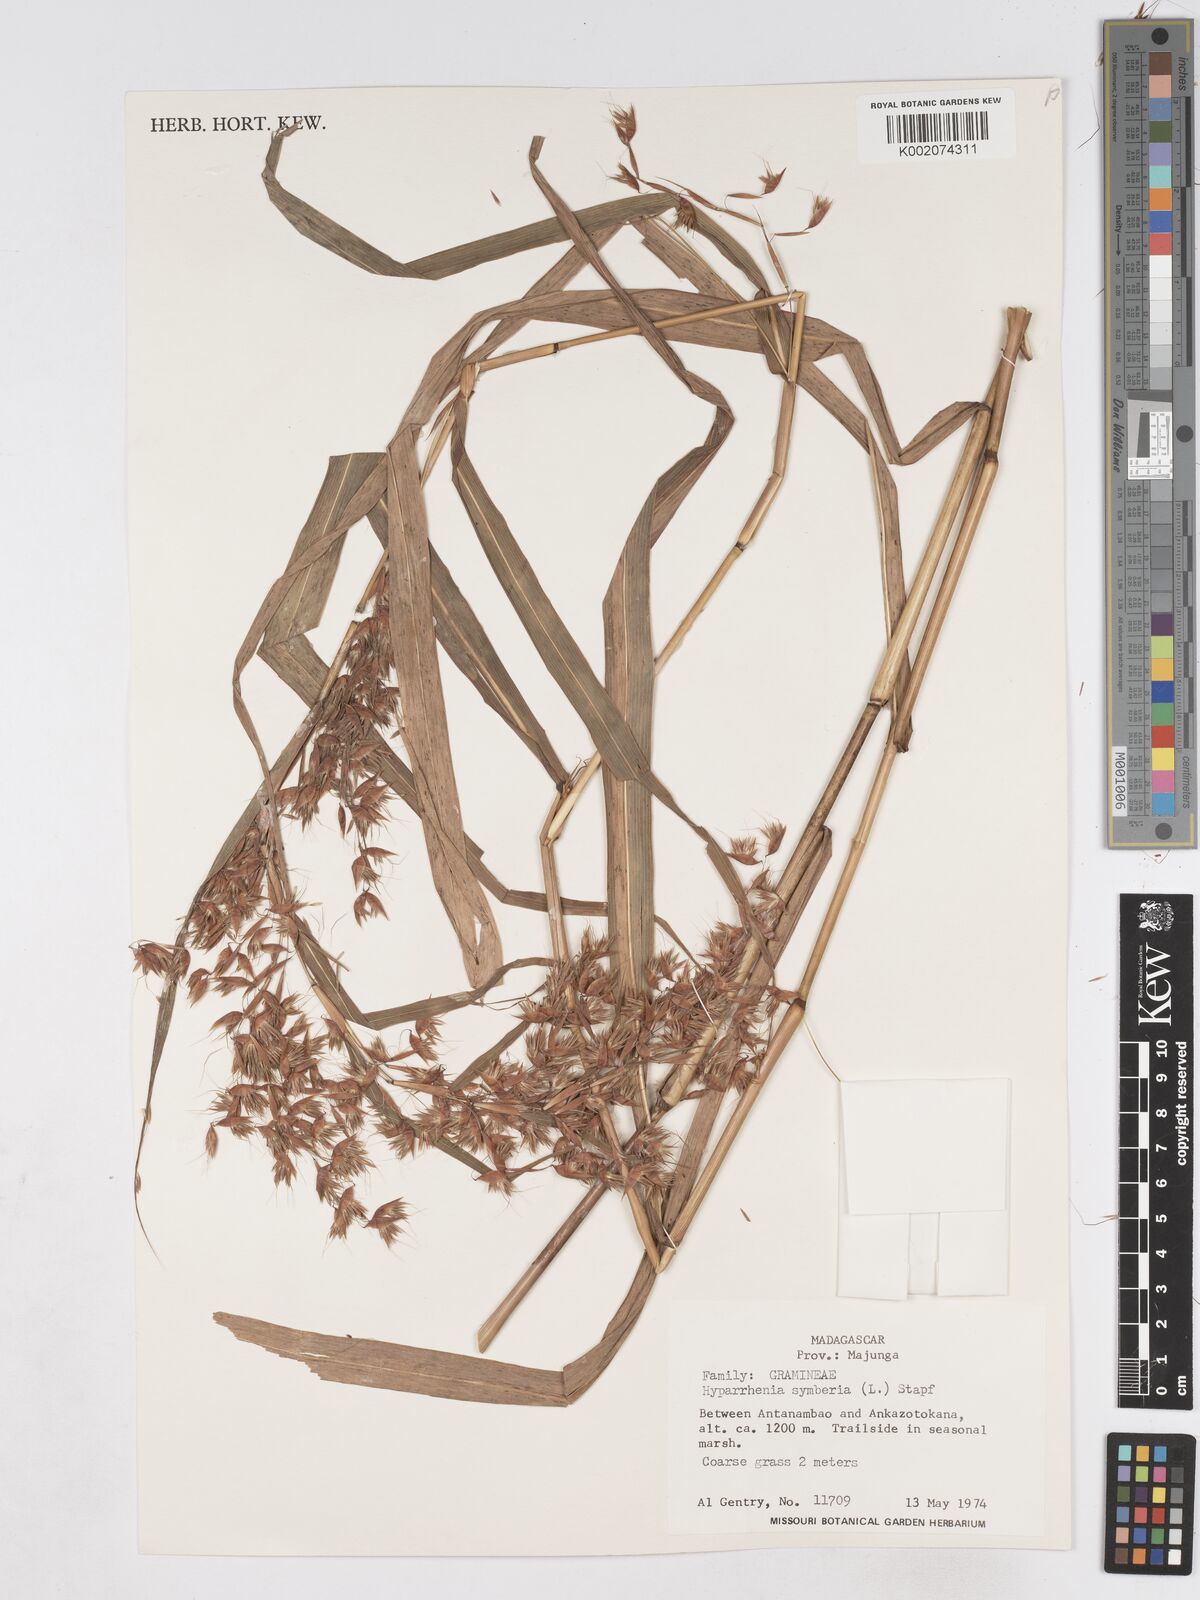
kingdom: Plantae
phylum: Tracheophyta
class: Liliopsida
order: Poales
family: Poaceae
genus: Hyparrhenia
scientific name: Hyparrhenia cymbaria
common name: Boat thatching grass
